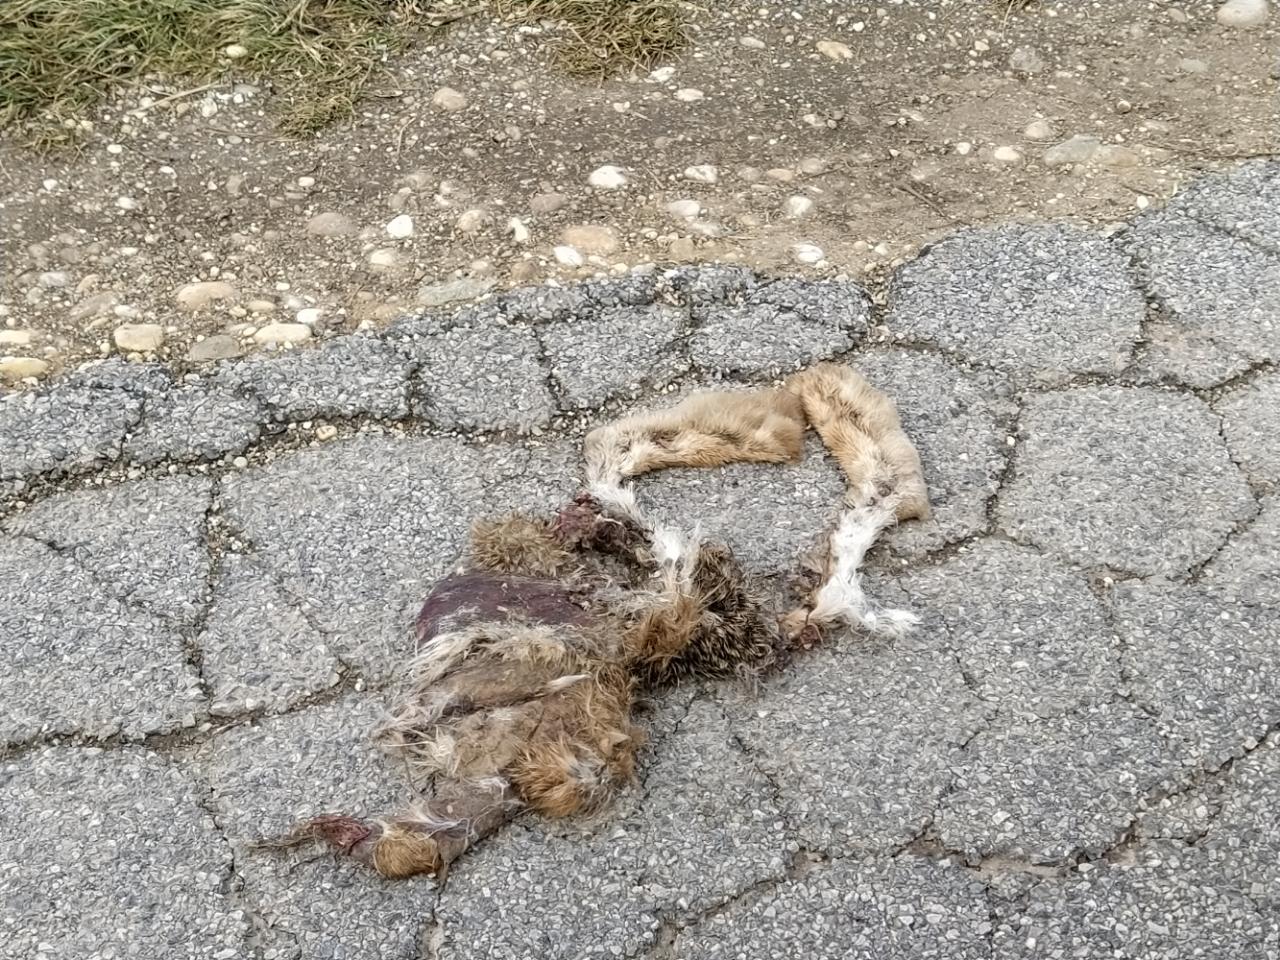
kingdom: Animalia
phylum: Chordata
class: Mammalia
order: Lagomorpha
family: Leporidae
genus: Lepus
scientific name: Lepus europaeus
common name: European hare
